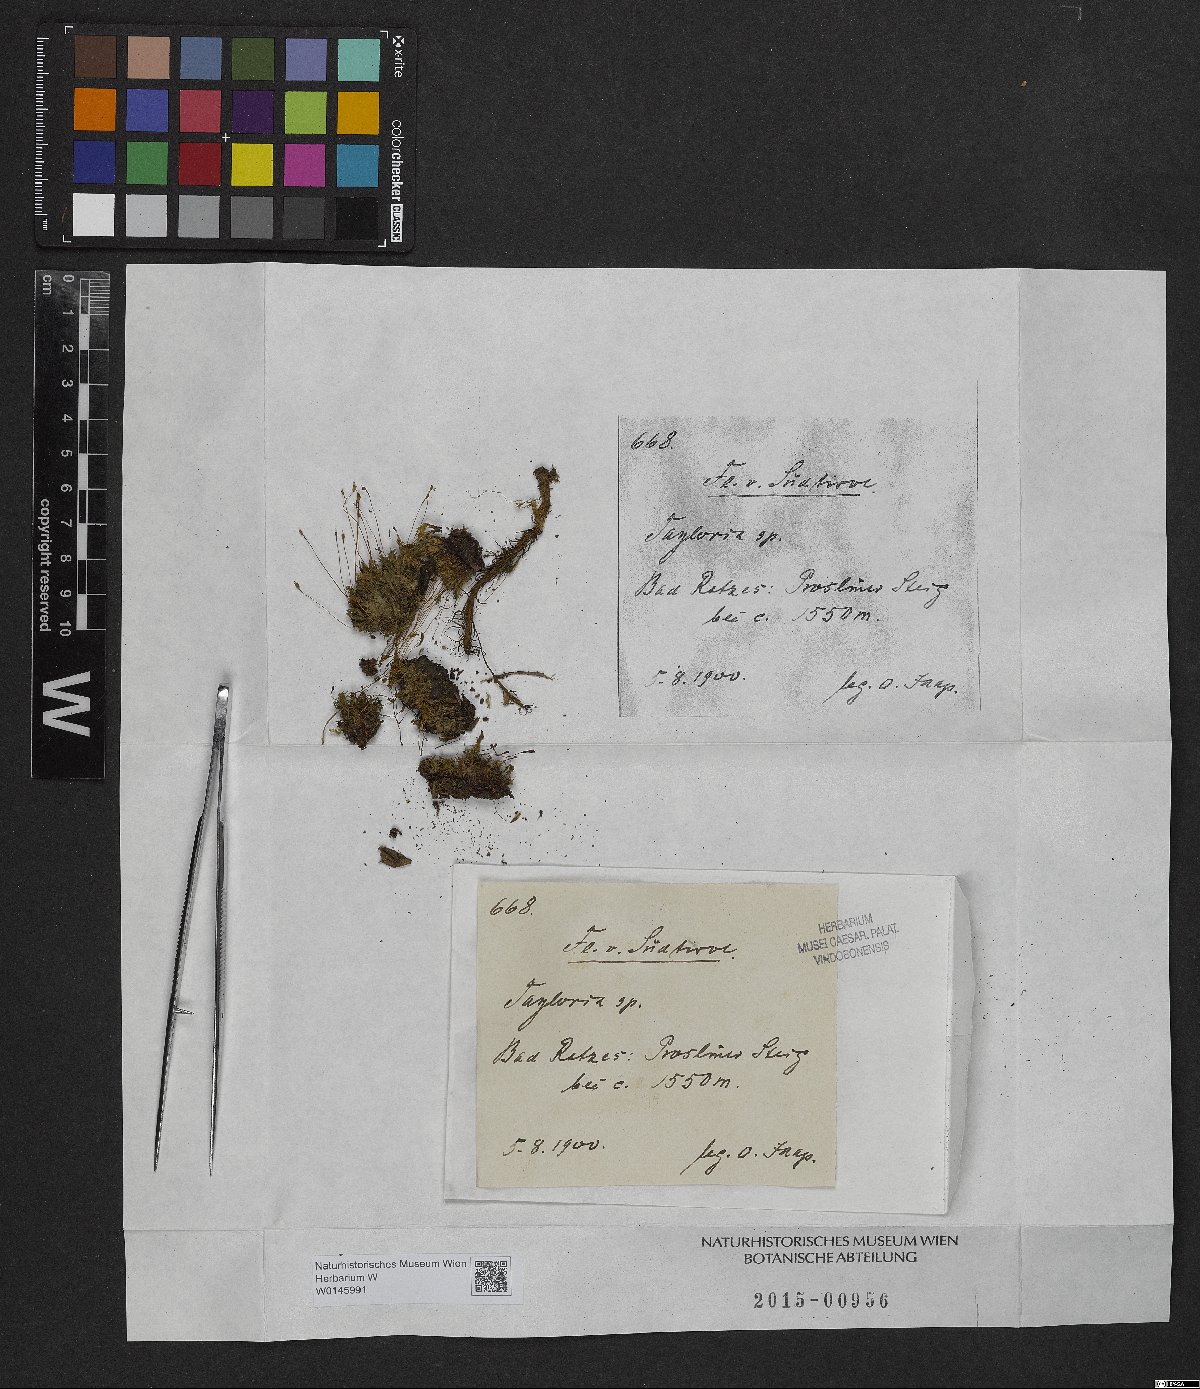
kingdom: Plantae
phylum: Bryophyta
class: Bryopsida
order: Splachnales
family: Splachnaceae
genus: Tayloria
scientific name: Tayloria
